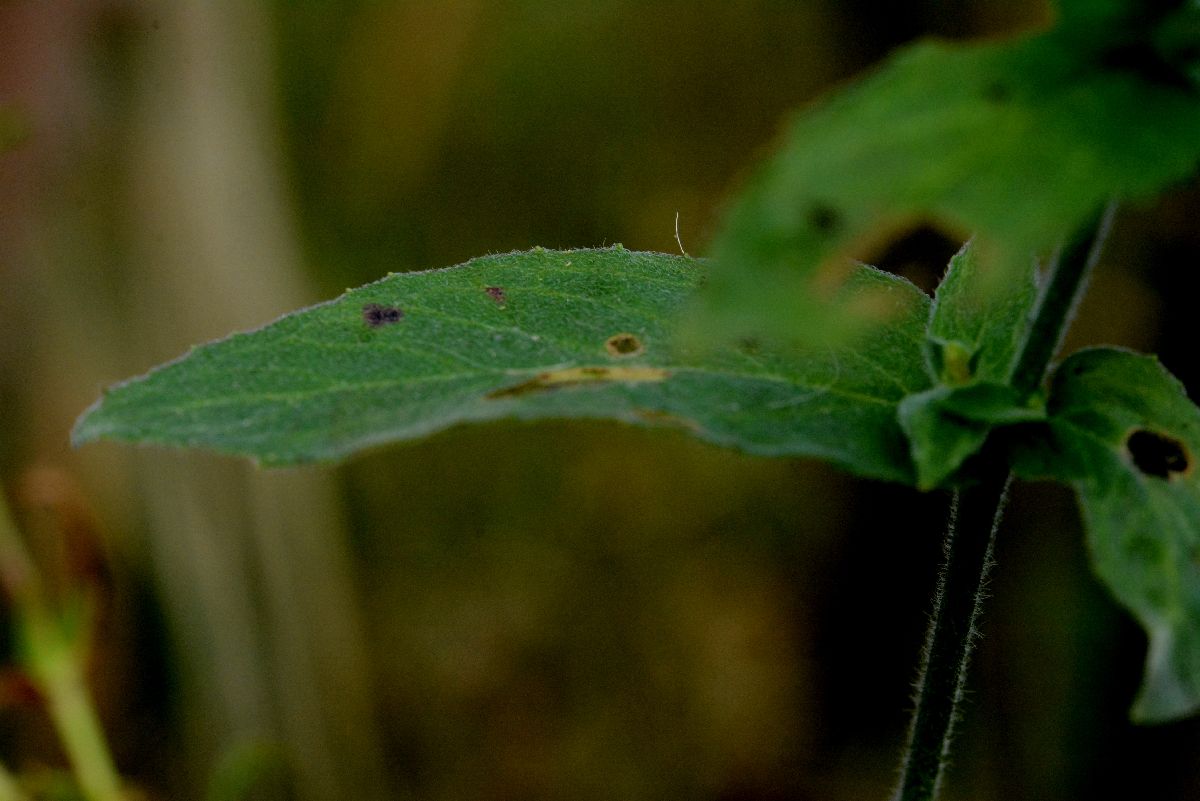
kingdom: Plantae
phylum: Tracheophyta
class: Magnoliopsida
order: Myrtales
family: Onagraceae
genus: Epilobium
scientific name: Epilobium parviflorum
